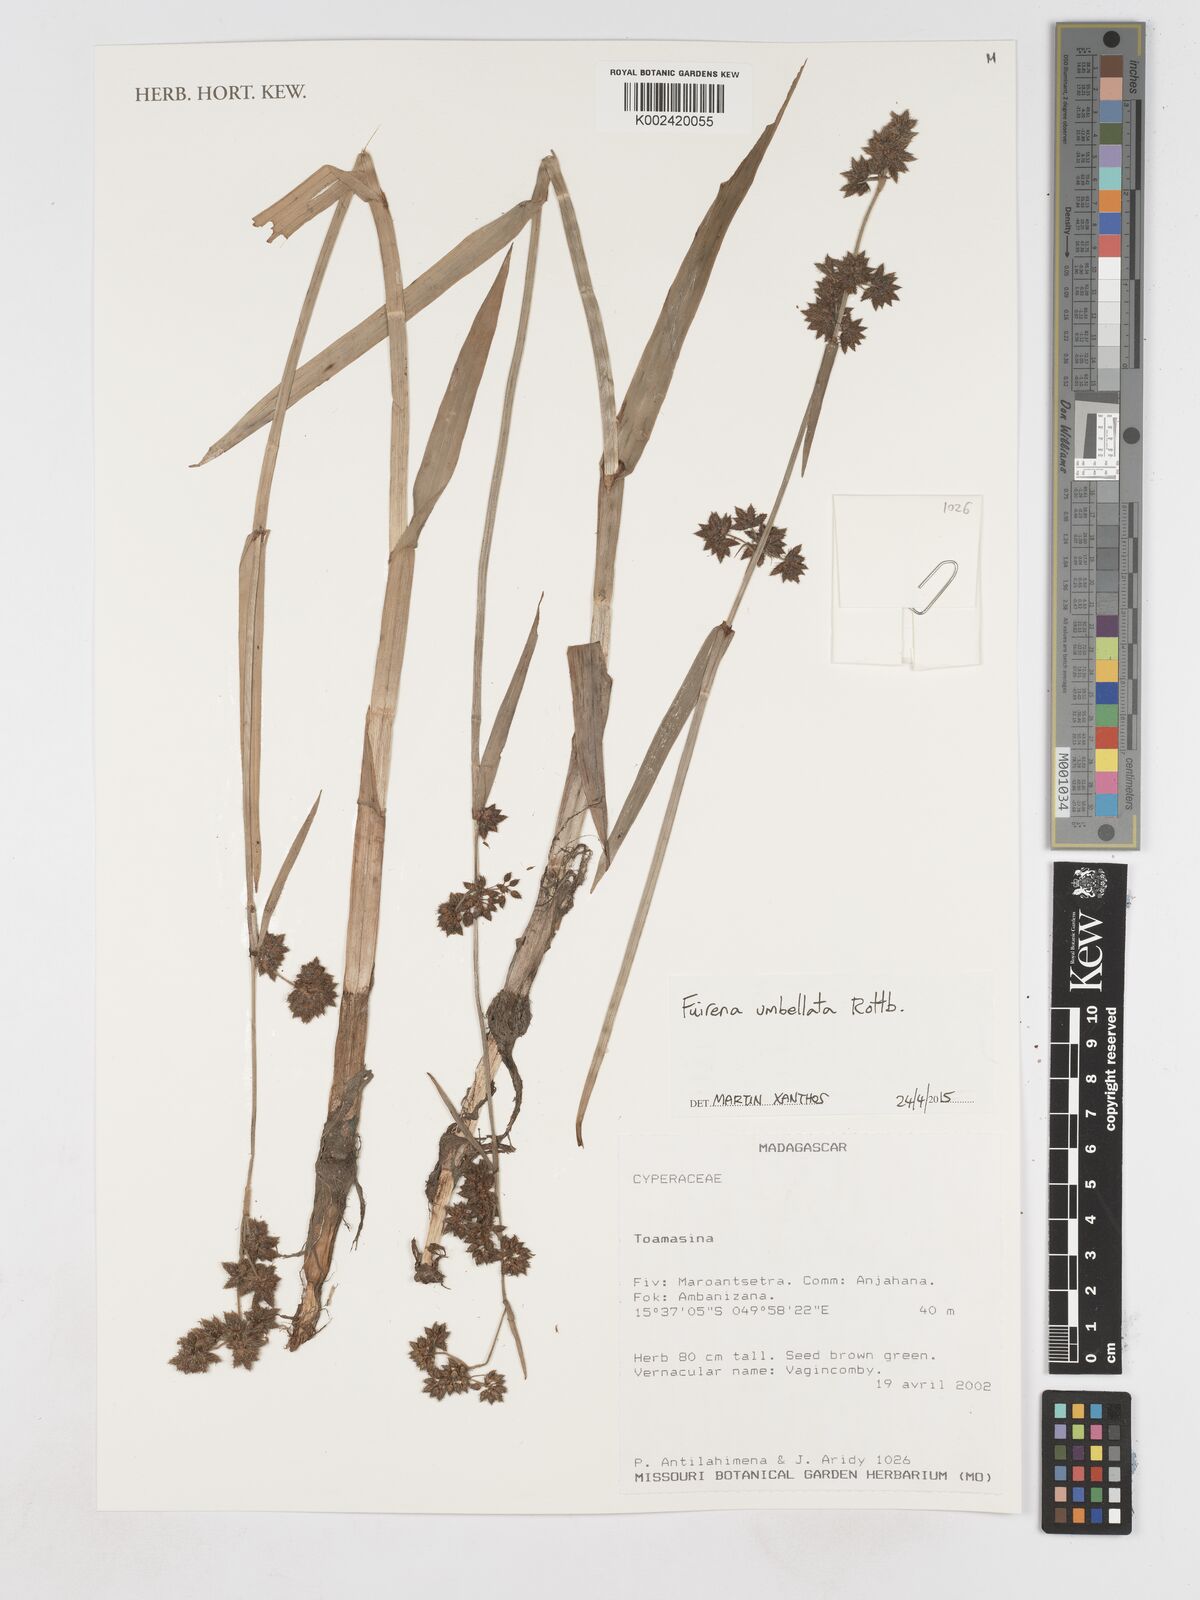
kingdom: Plantae
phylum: Tracheophyta
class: Liliopsida
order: Poales
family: Cyperaceae
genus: Fuirena
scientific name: Fuirena umbellata
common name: Yefen
